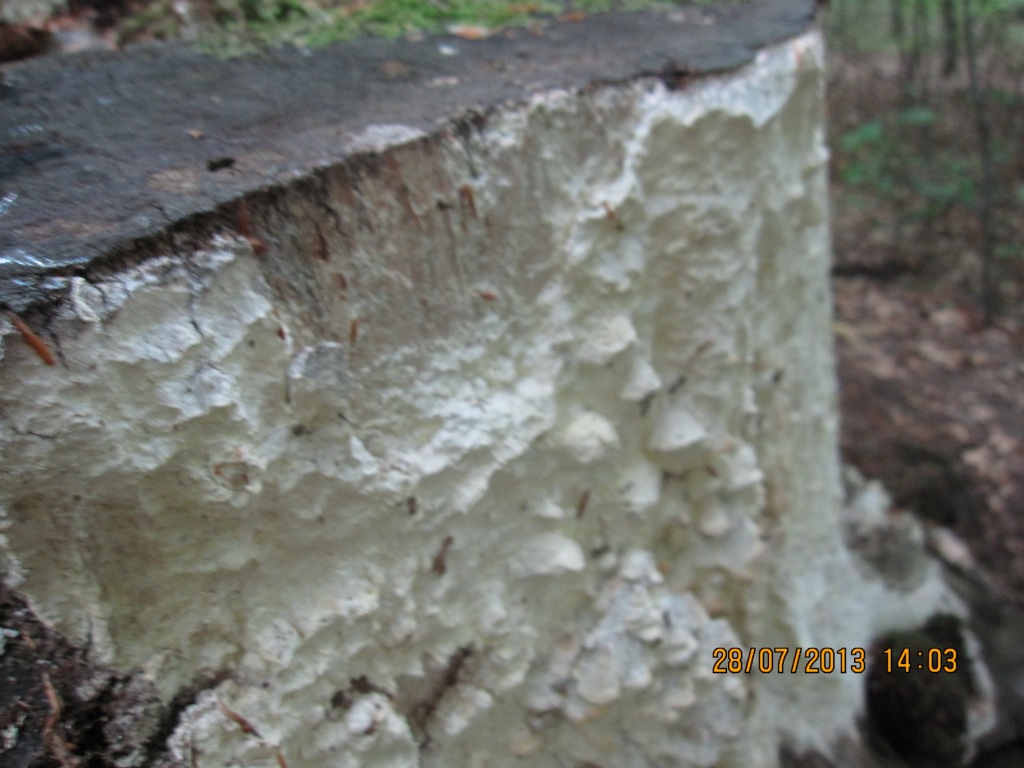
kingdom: Fungi
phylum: Basidiomycota
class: Agaricomycetes
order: Polyporales
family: Fomitopsidaceae
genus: Daedalea
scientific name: Daedalea xantha
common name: gul sejporesvamp
